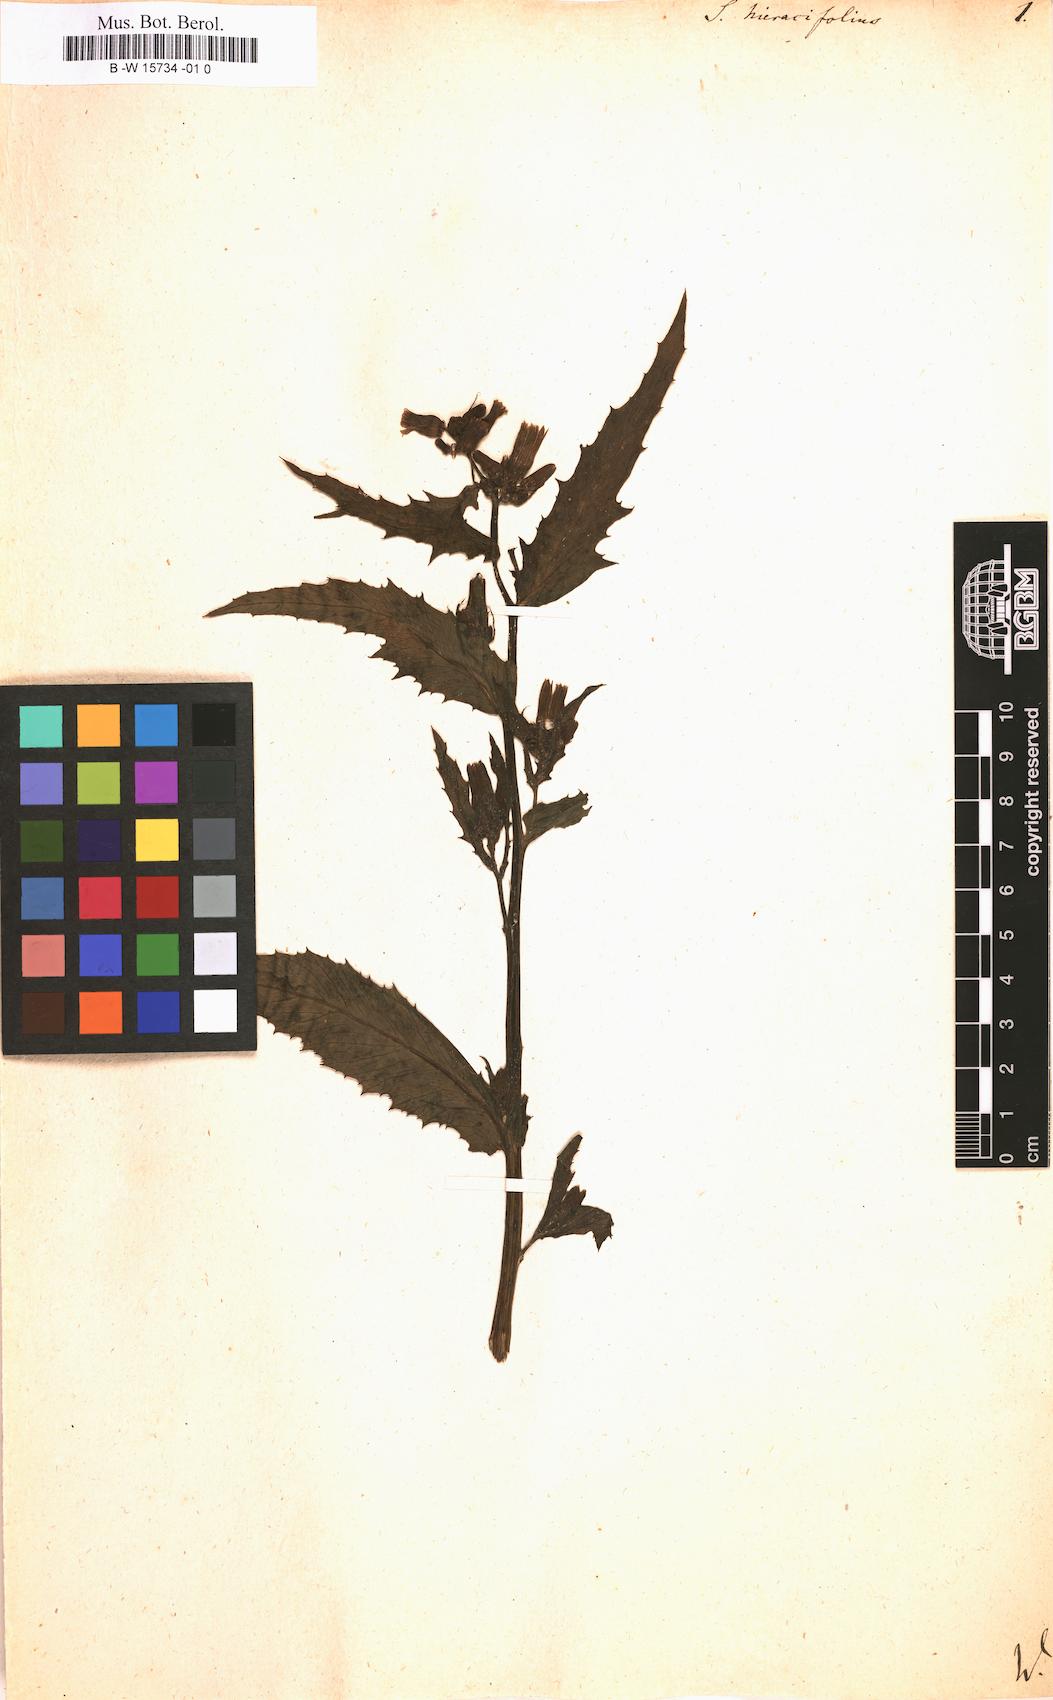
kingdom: Plantae
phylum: Tracheophyta
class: Magnoliopsida
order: Asterales
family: Asteraceae
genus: Senecio
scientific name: Senecio
